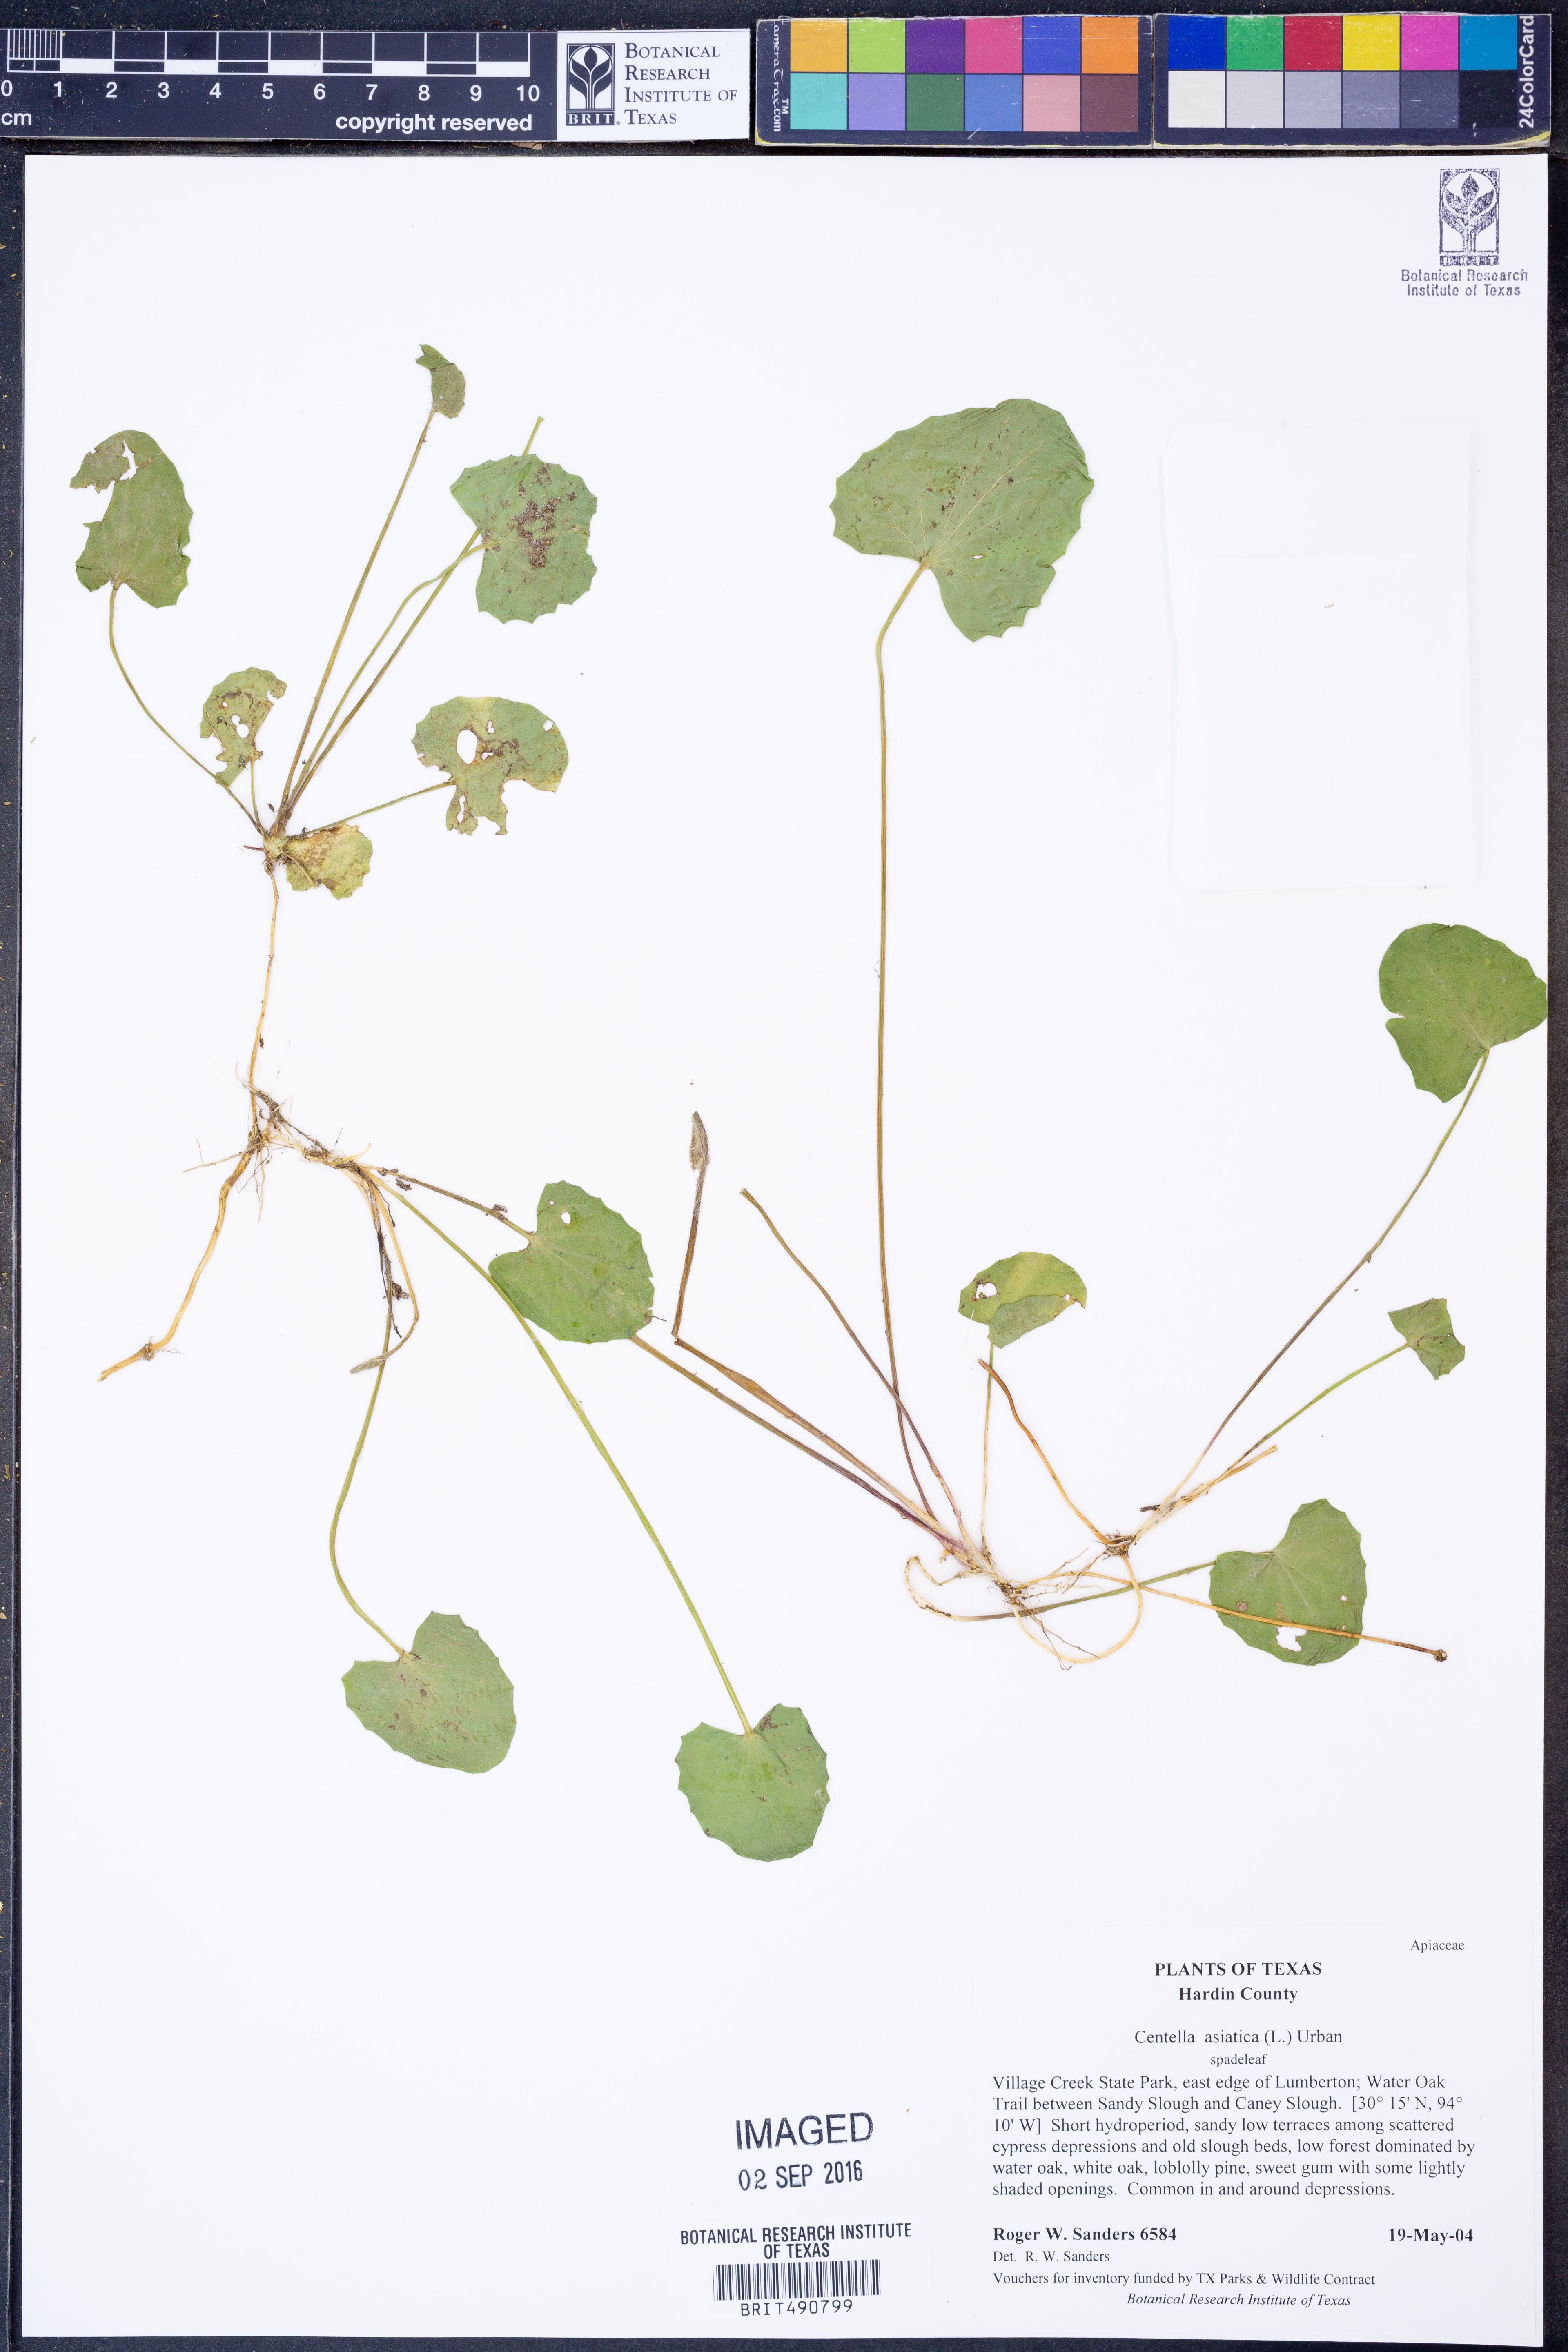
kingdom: Plantae
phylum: Tracheophyta
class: Magnoliopsida
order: Apiales
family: Apiaceae
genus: Centella
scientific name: Centella asiatica
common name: Spadeleaf
